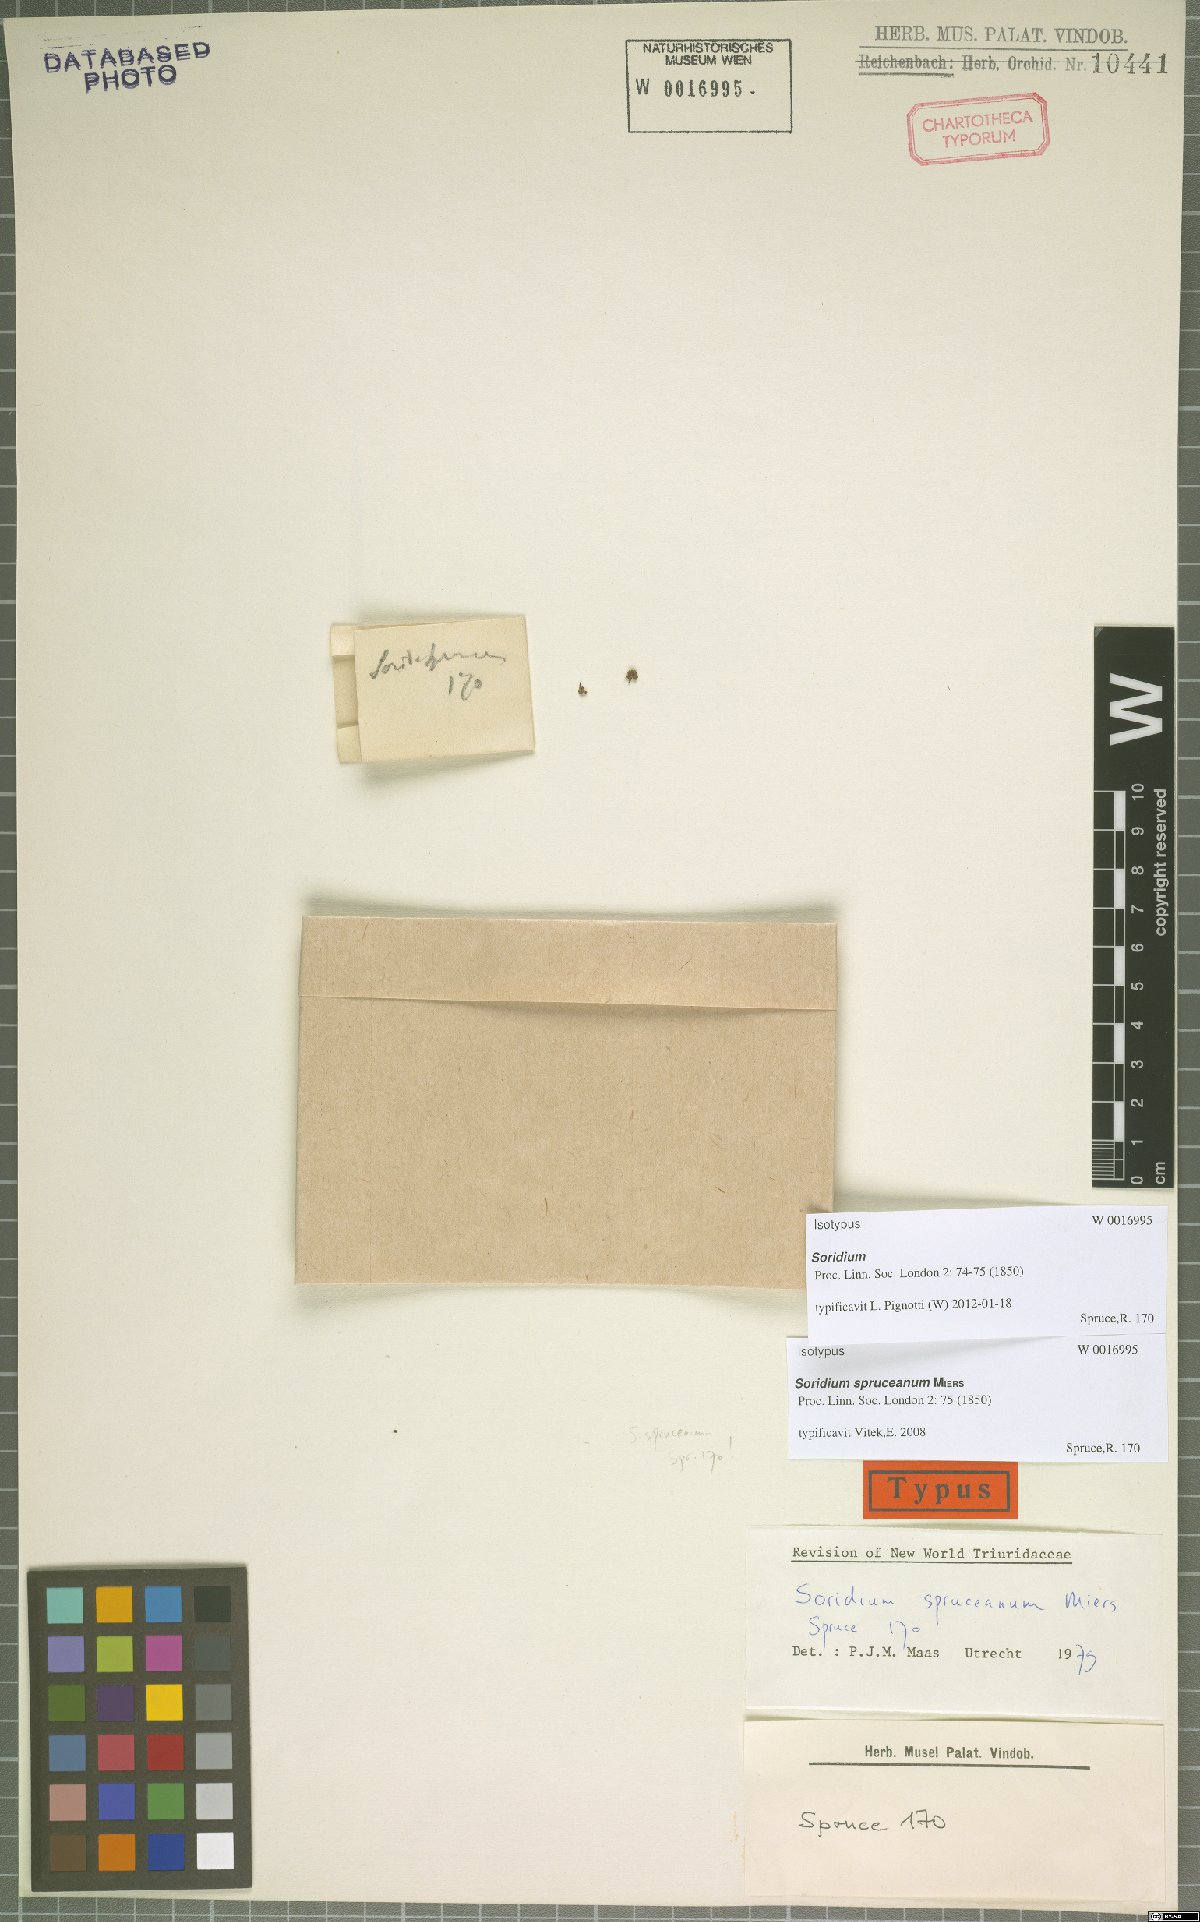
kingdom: Plantae
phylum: Tracheophyta
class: Liliopsida
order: Pandanales
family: Triuridaceae
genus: Soridium
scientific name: Soridium spruceanum
